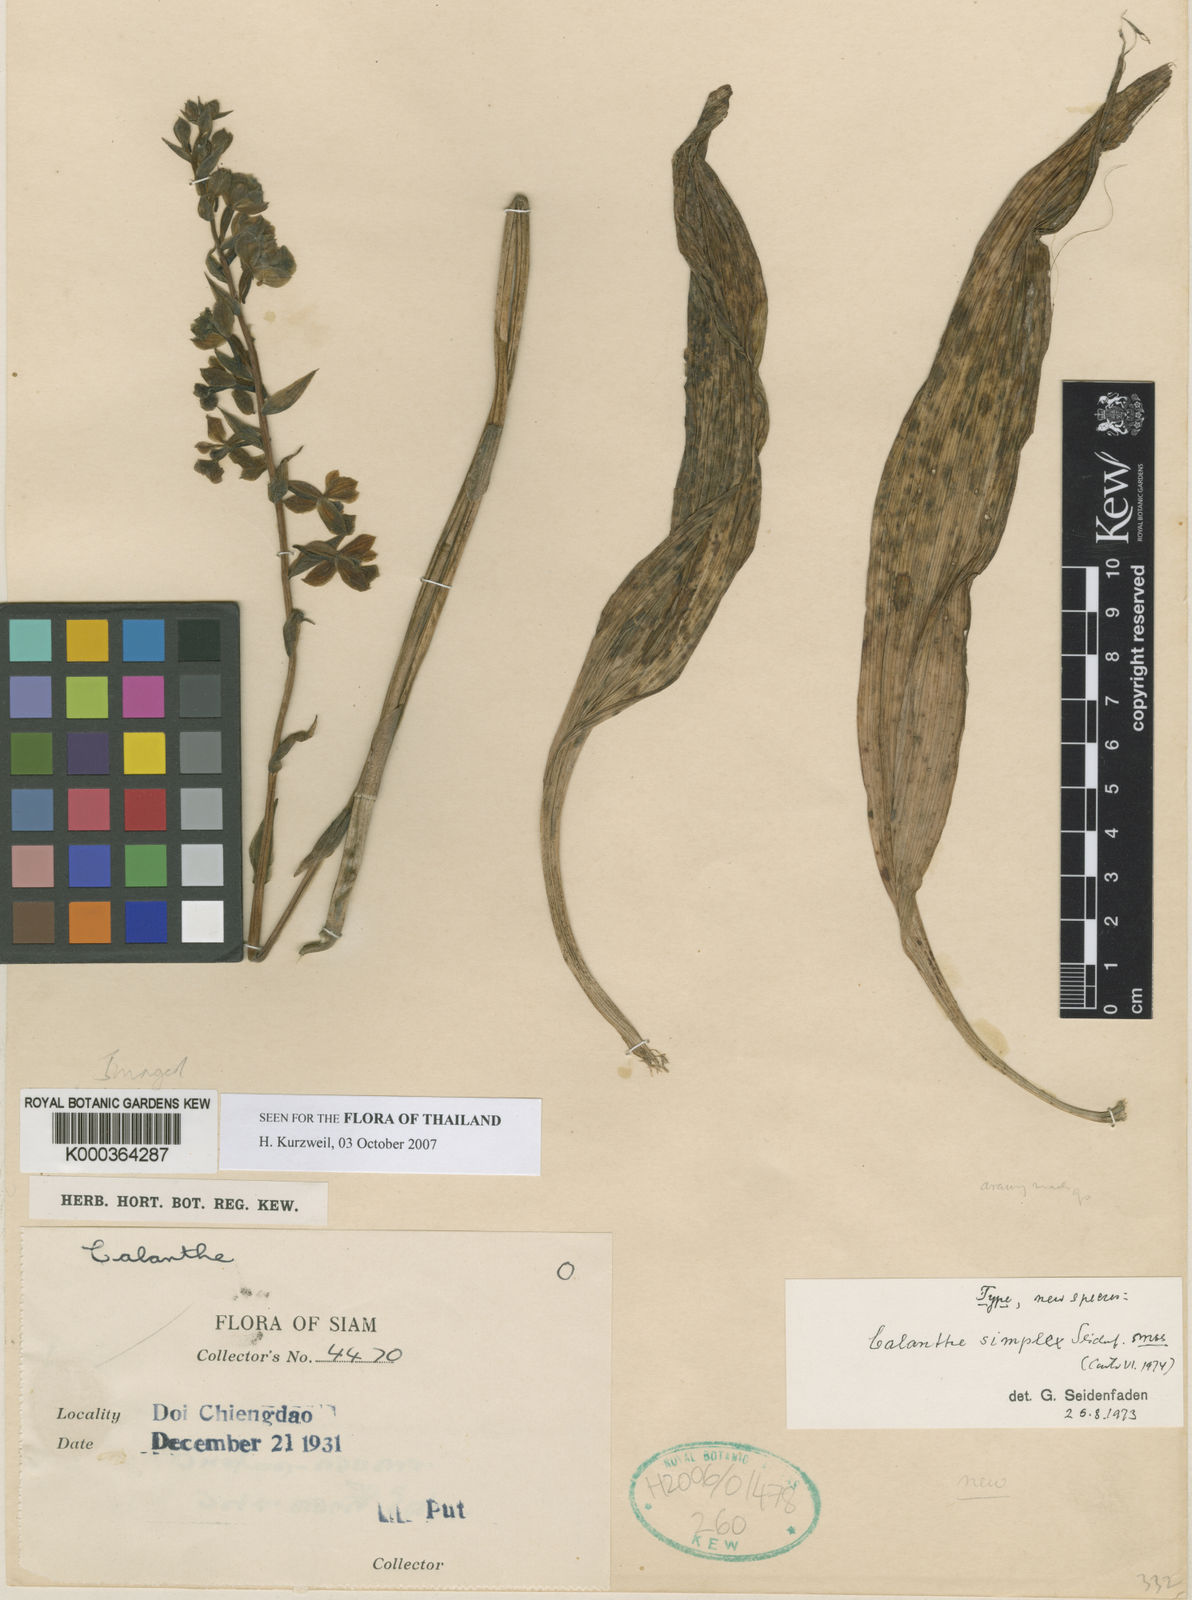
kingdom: Plantae
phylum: Tracheophyta
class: Liliopsida
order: Asparagales
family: Orchidaceae
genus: Calanthe
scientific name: Calanthe simplex
